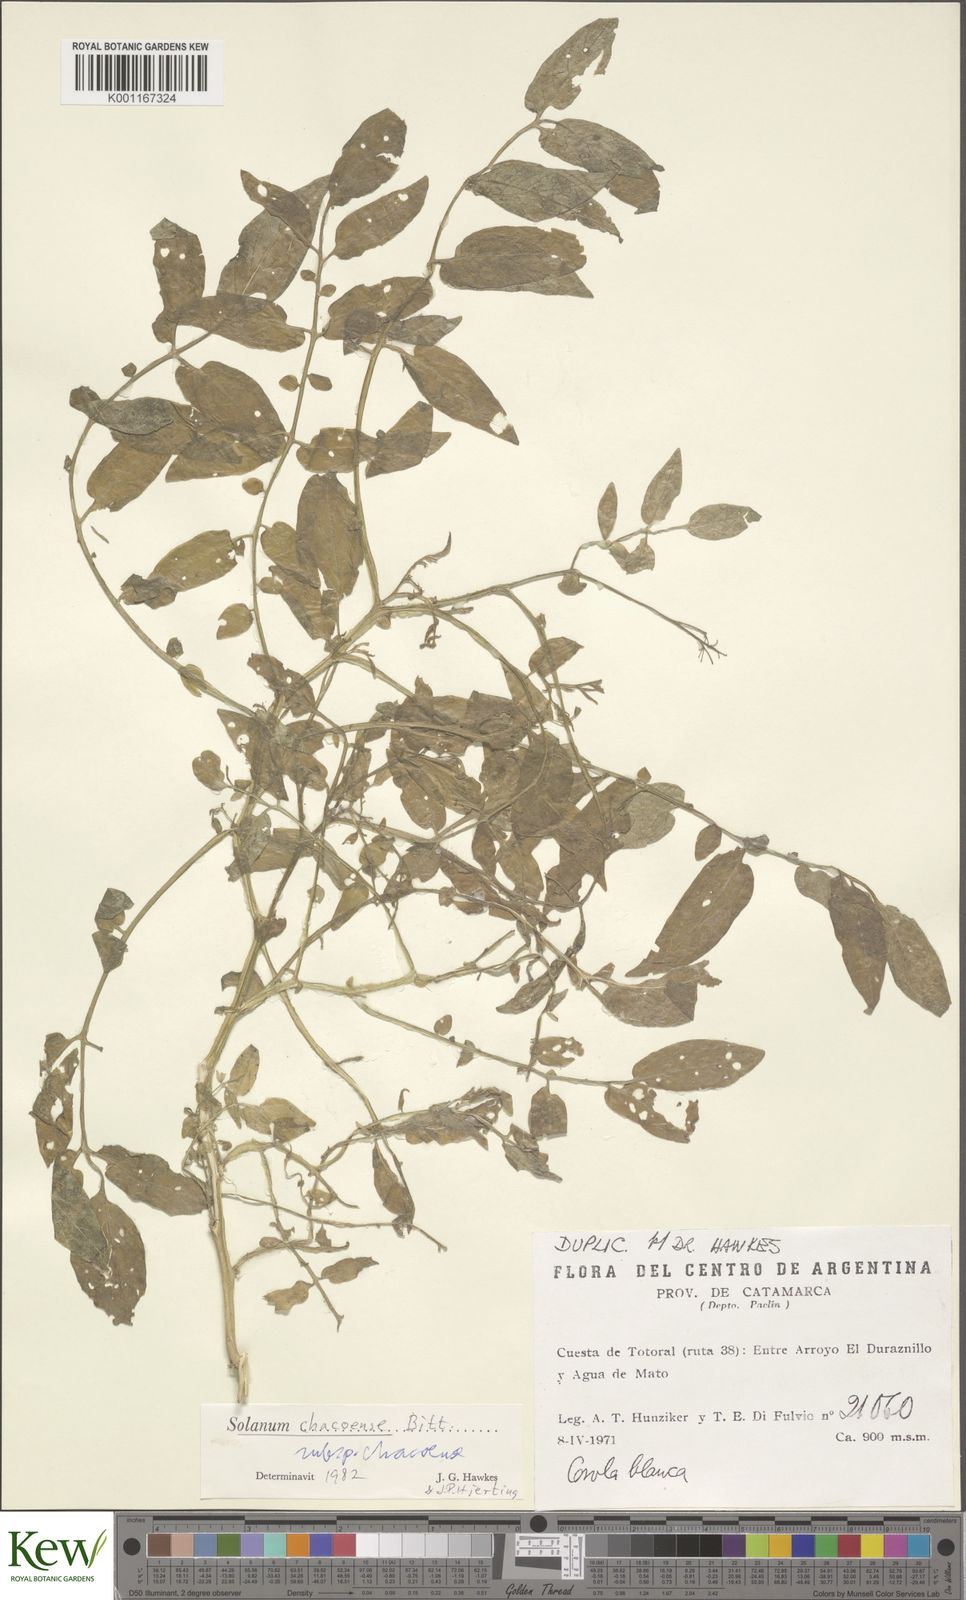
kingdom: Plantae
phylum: Tracheophyta
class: Magnoliopsida
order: Solanales
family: Solanaceae
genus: Solanum
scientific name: Solanum chacoense
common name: Chaco potato
